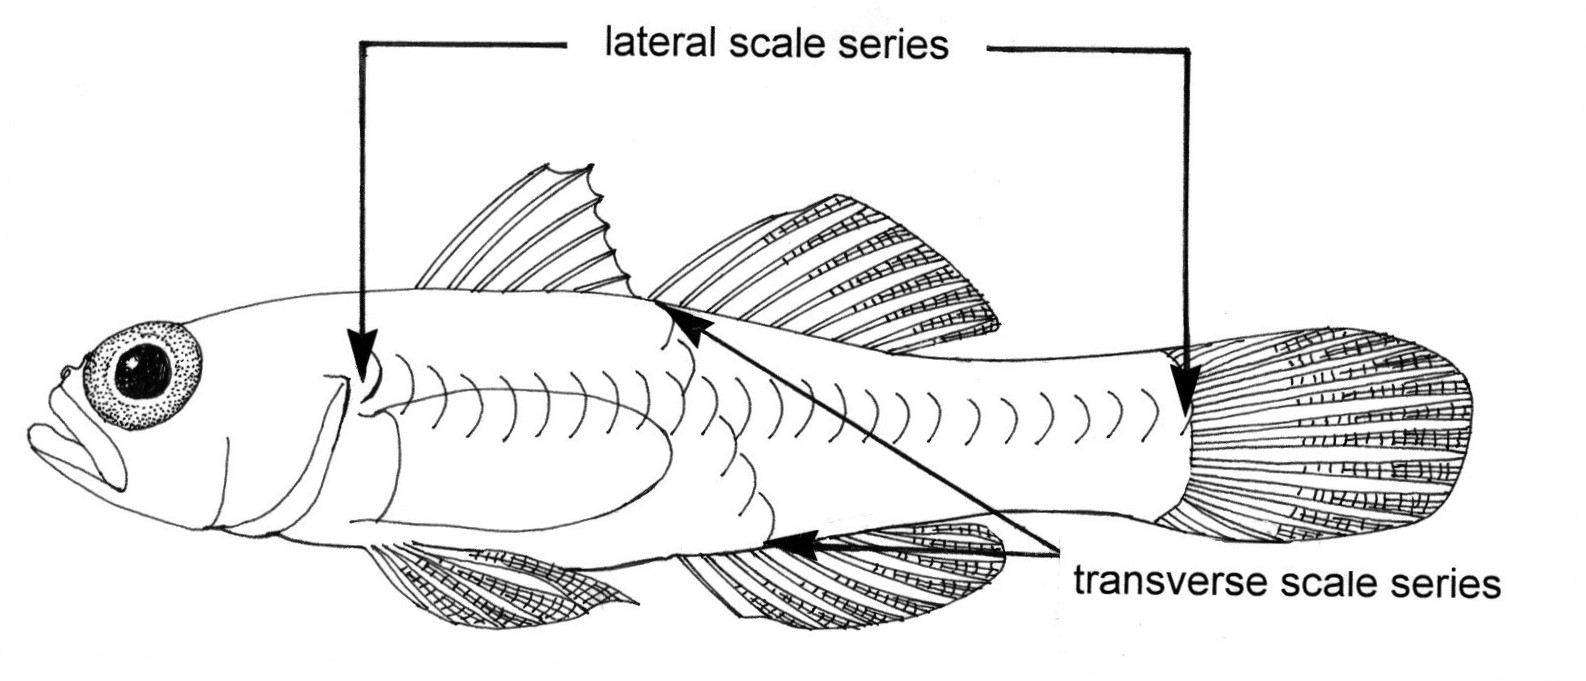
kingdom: Animalia
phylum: Chordata
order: Perciformes
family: Gobiidae
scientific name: Gobiidae
